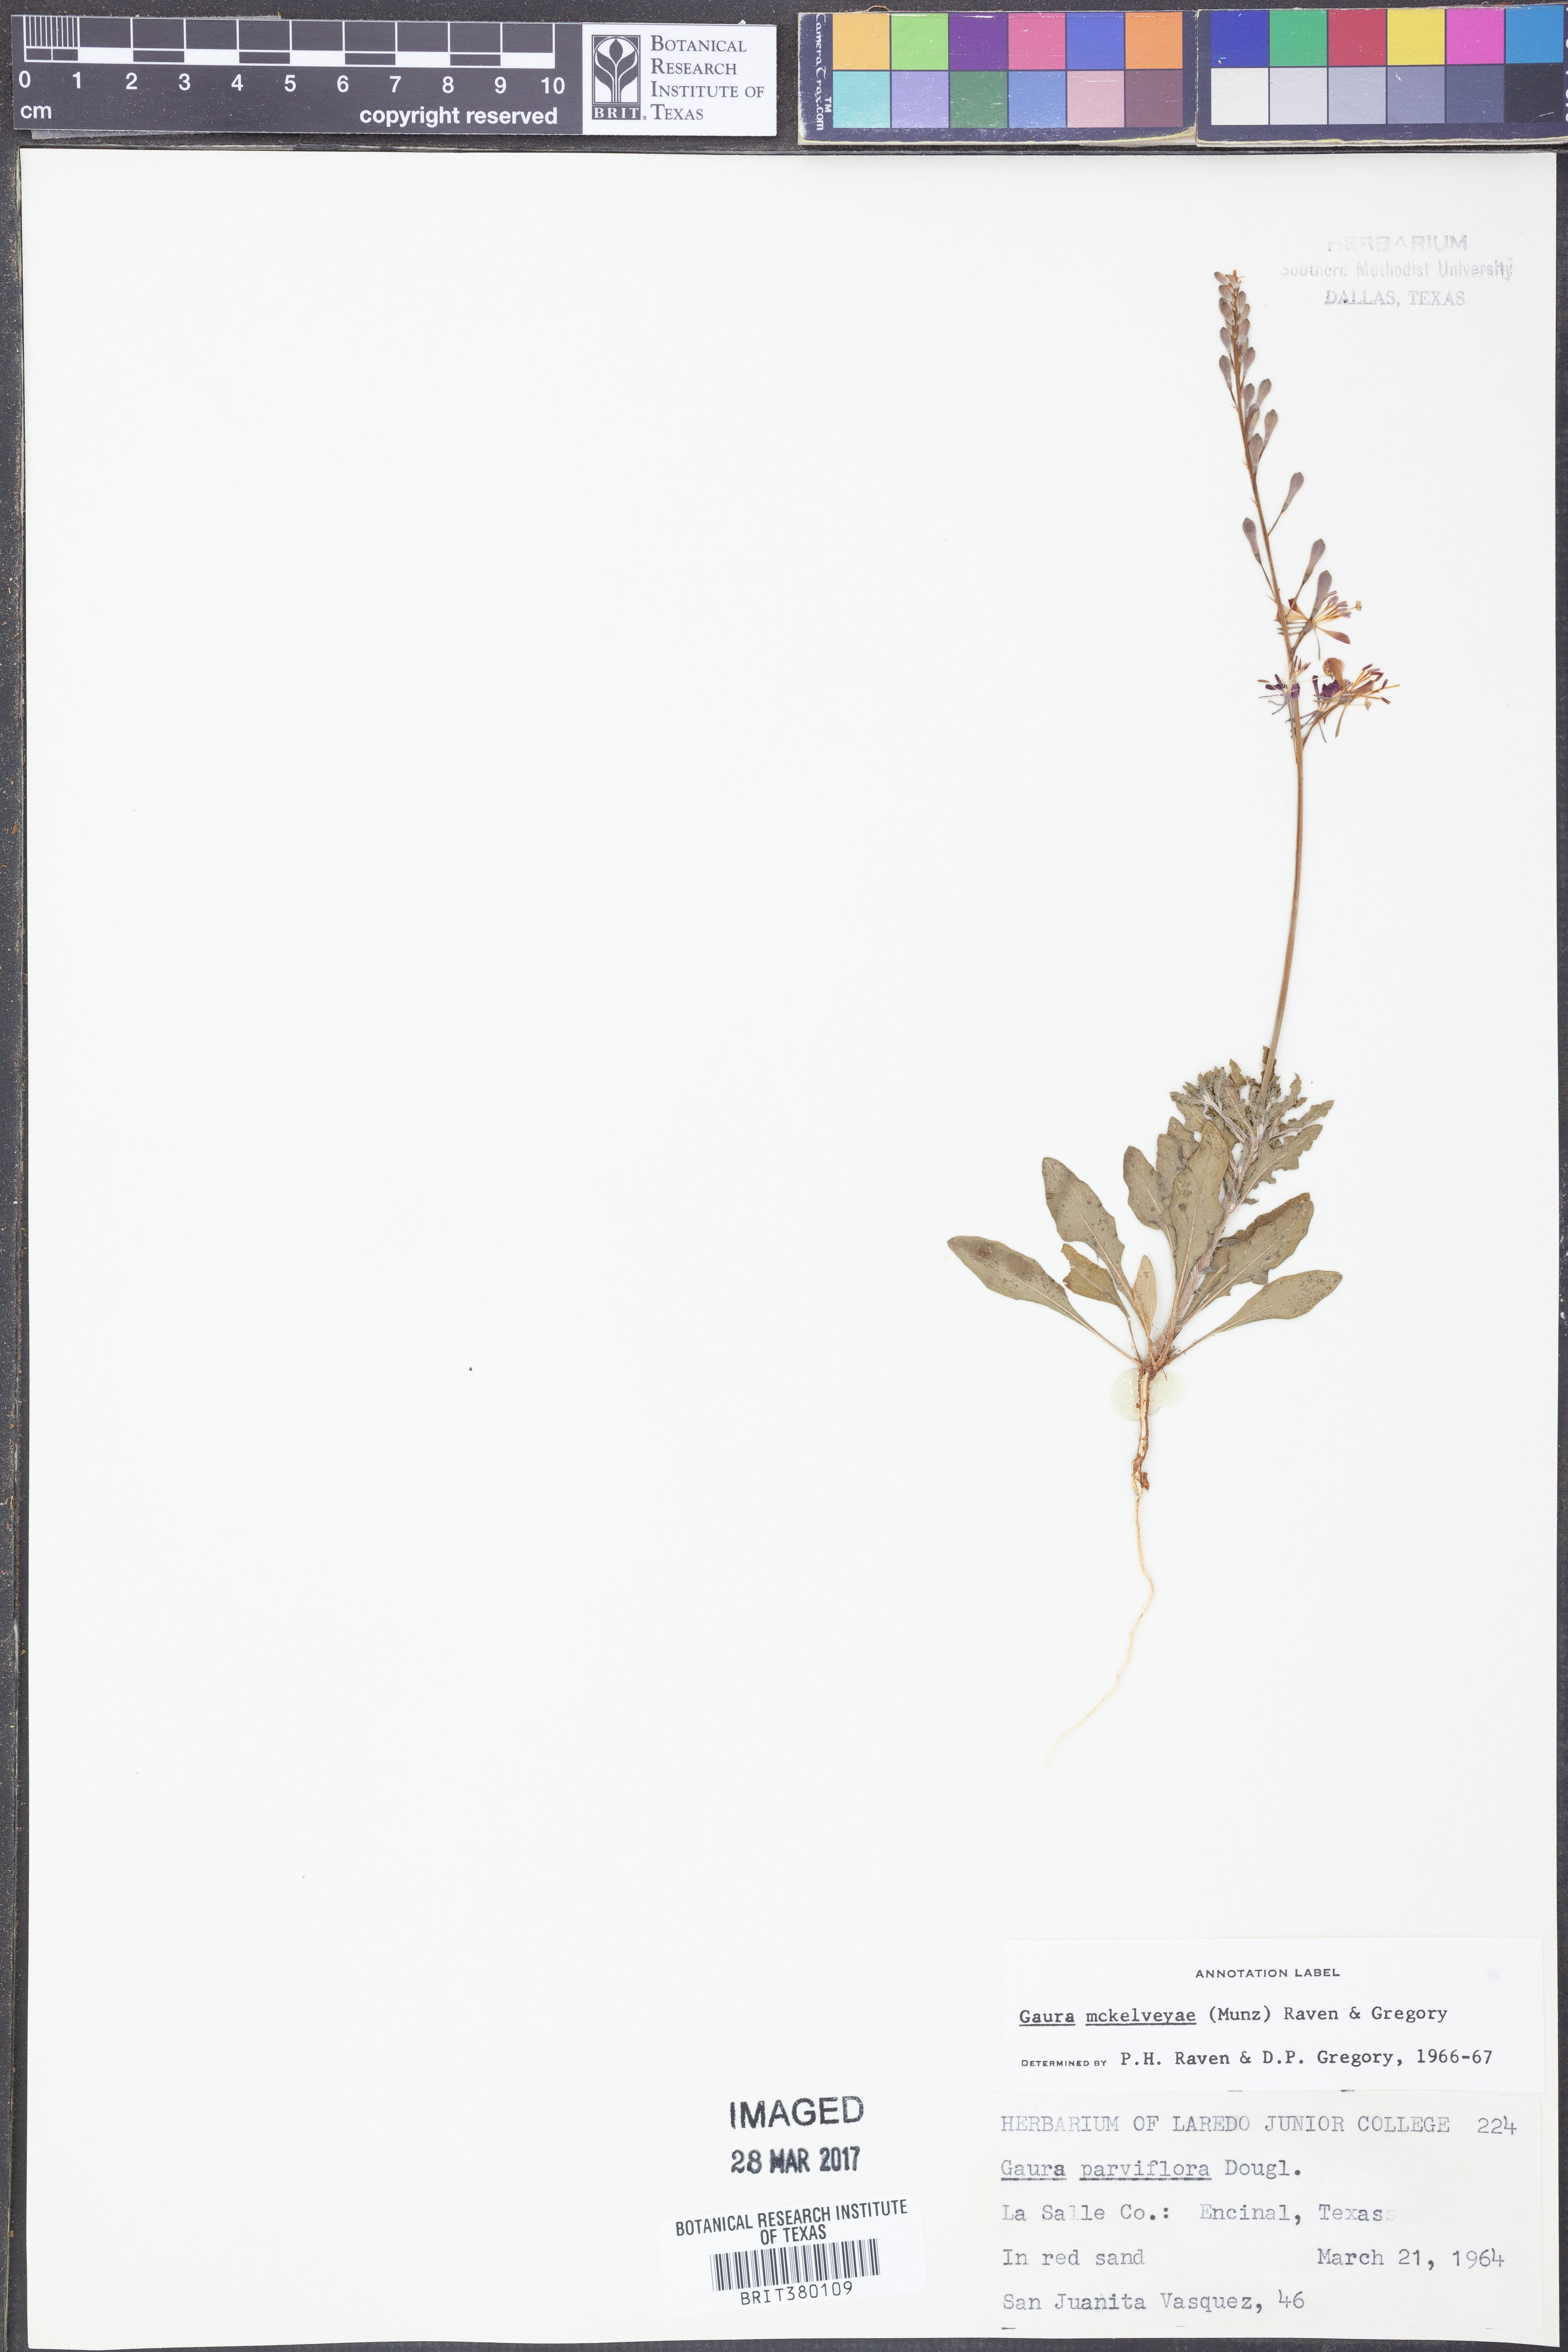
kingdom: Plantae
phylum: Tracheophyta
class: Magnoliopsida
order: Myrtales
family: Onagraceae
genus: Oenothera
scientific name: Oenothera mckelveyae
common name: Mckelvey's beeblossom
